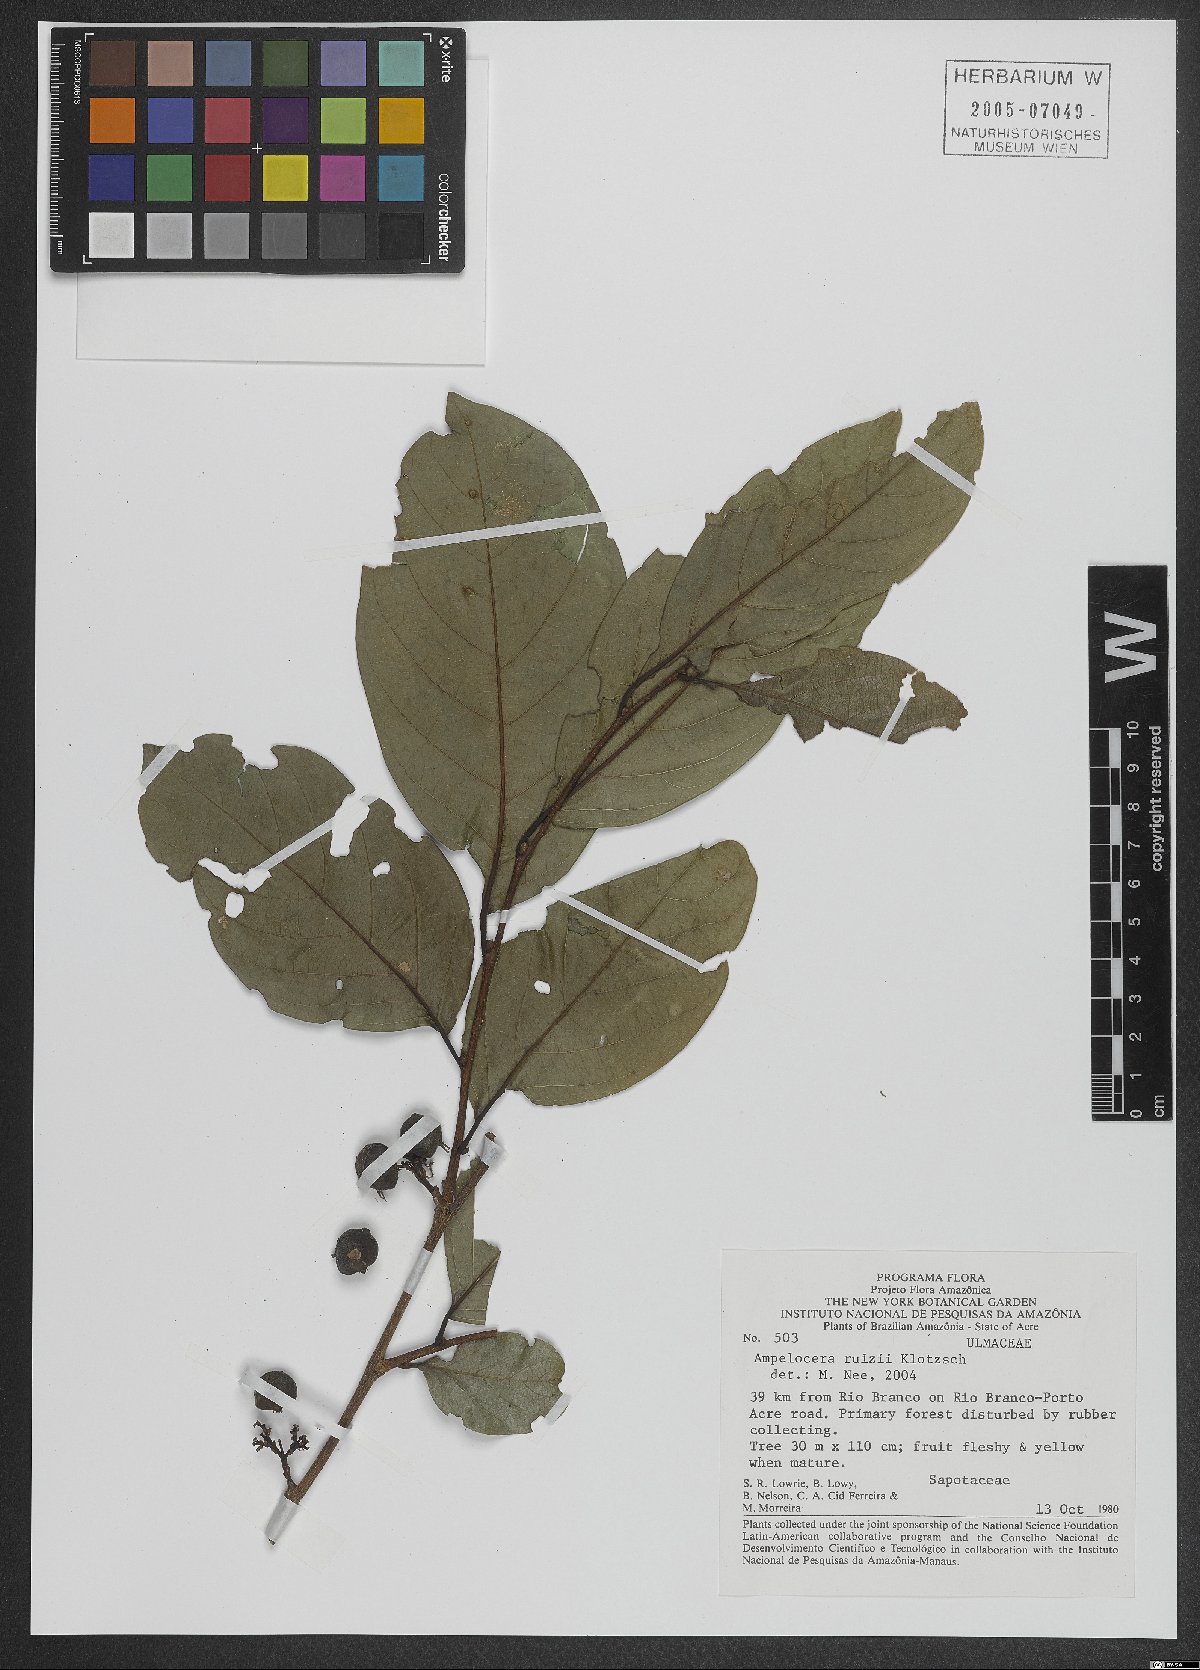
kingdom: Plantae
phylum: Tracheophyta
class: Magnoliopsida
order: Rosales
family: Cannabaceae
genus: Ampelocera
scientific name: Ampelocera ruizii
